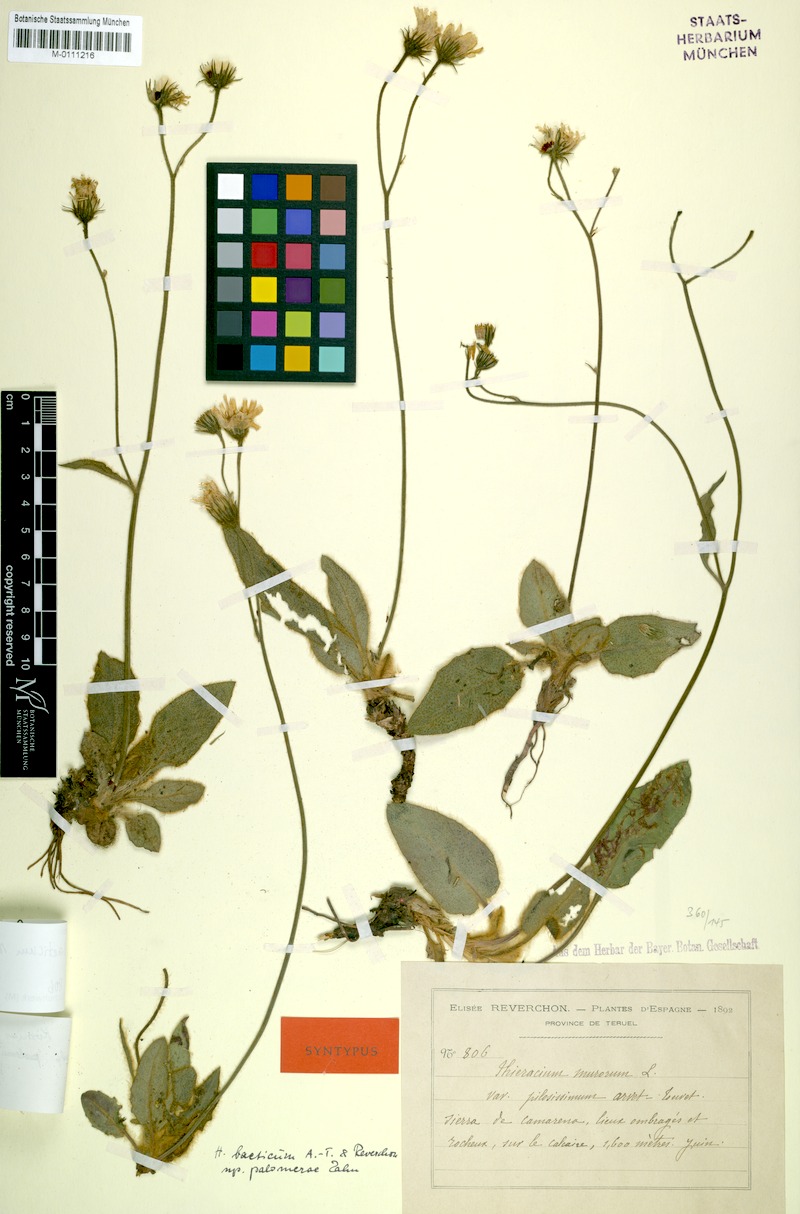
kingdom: Plantae
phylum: Tracheophyta
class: Magnoliopsida
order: Asterales
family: Asteraceae
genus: Hieracium
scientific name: Hieracium bourgaei
